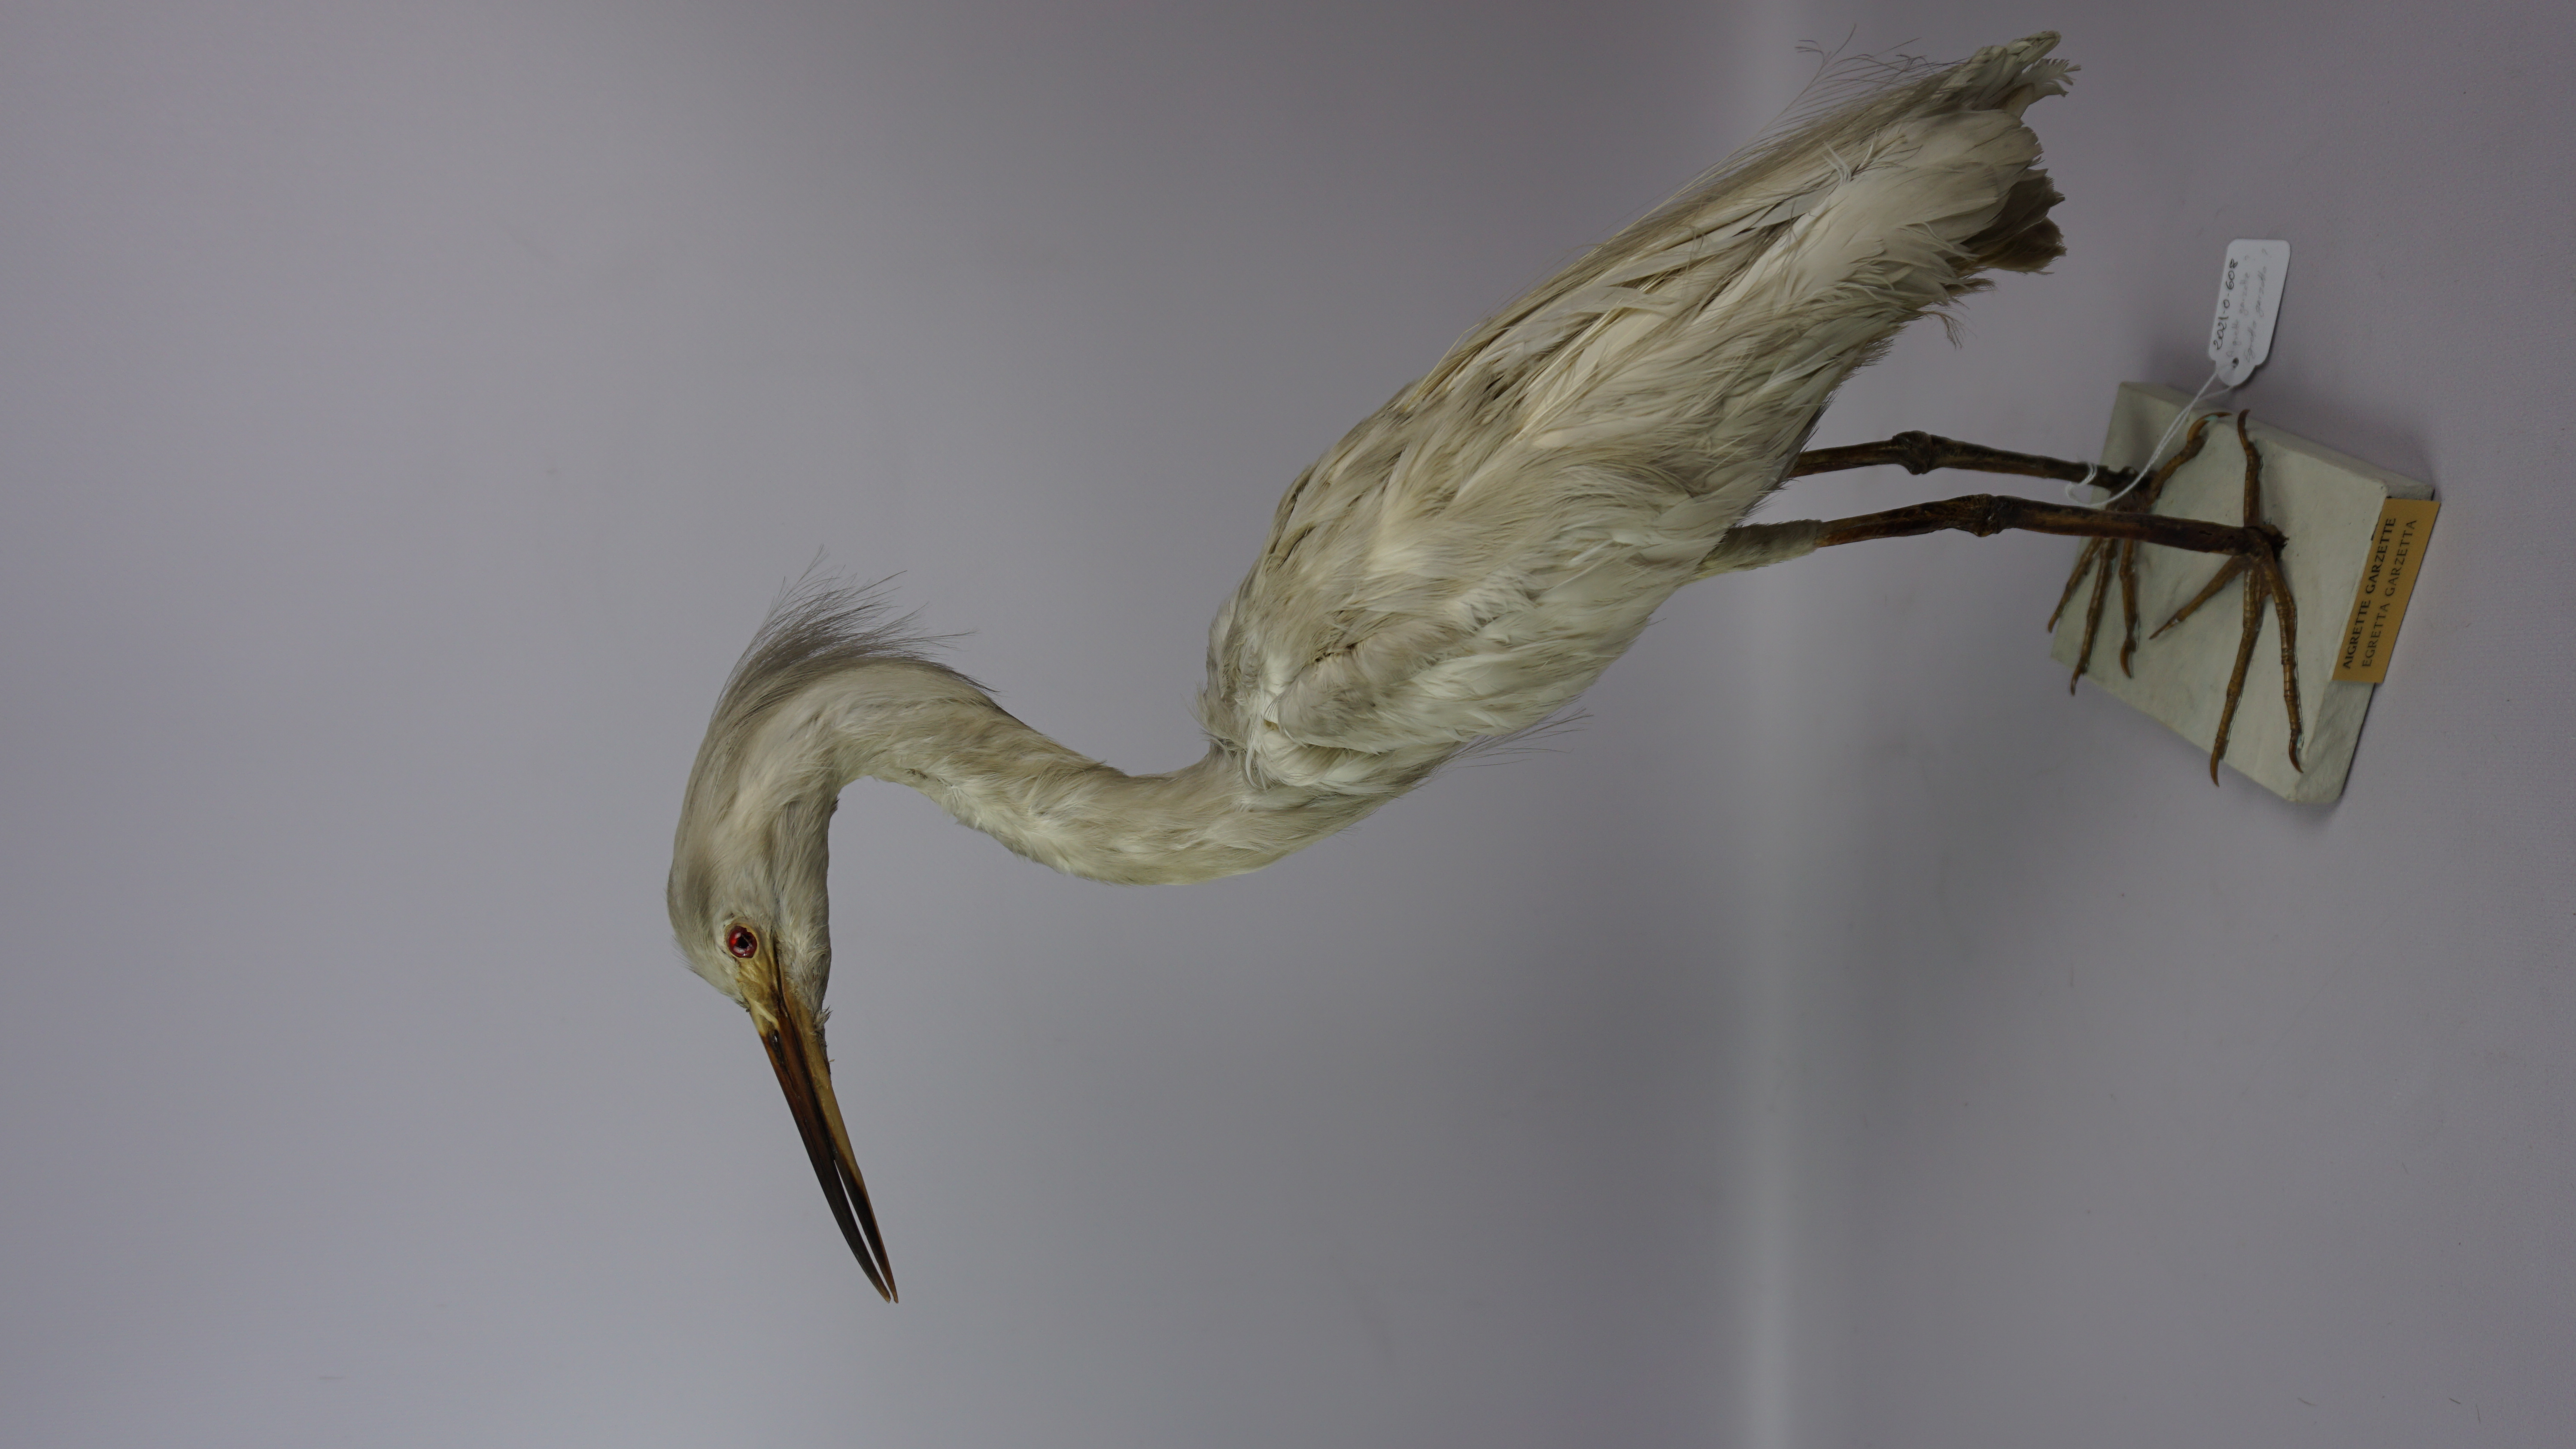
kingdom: Animalia
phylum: Chordata
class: Aves
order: Pelecaniformes
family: Ardeidae
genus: Egretta
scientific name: Egretta garzetta
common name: Little egret
